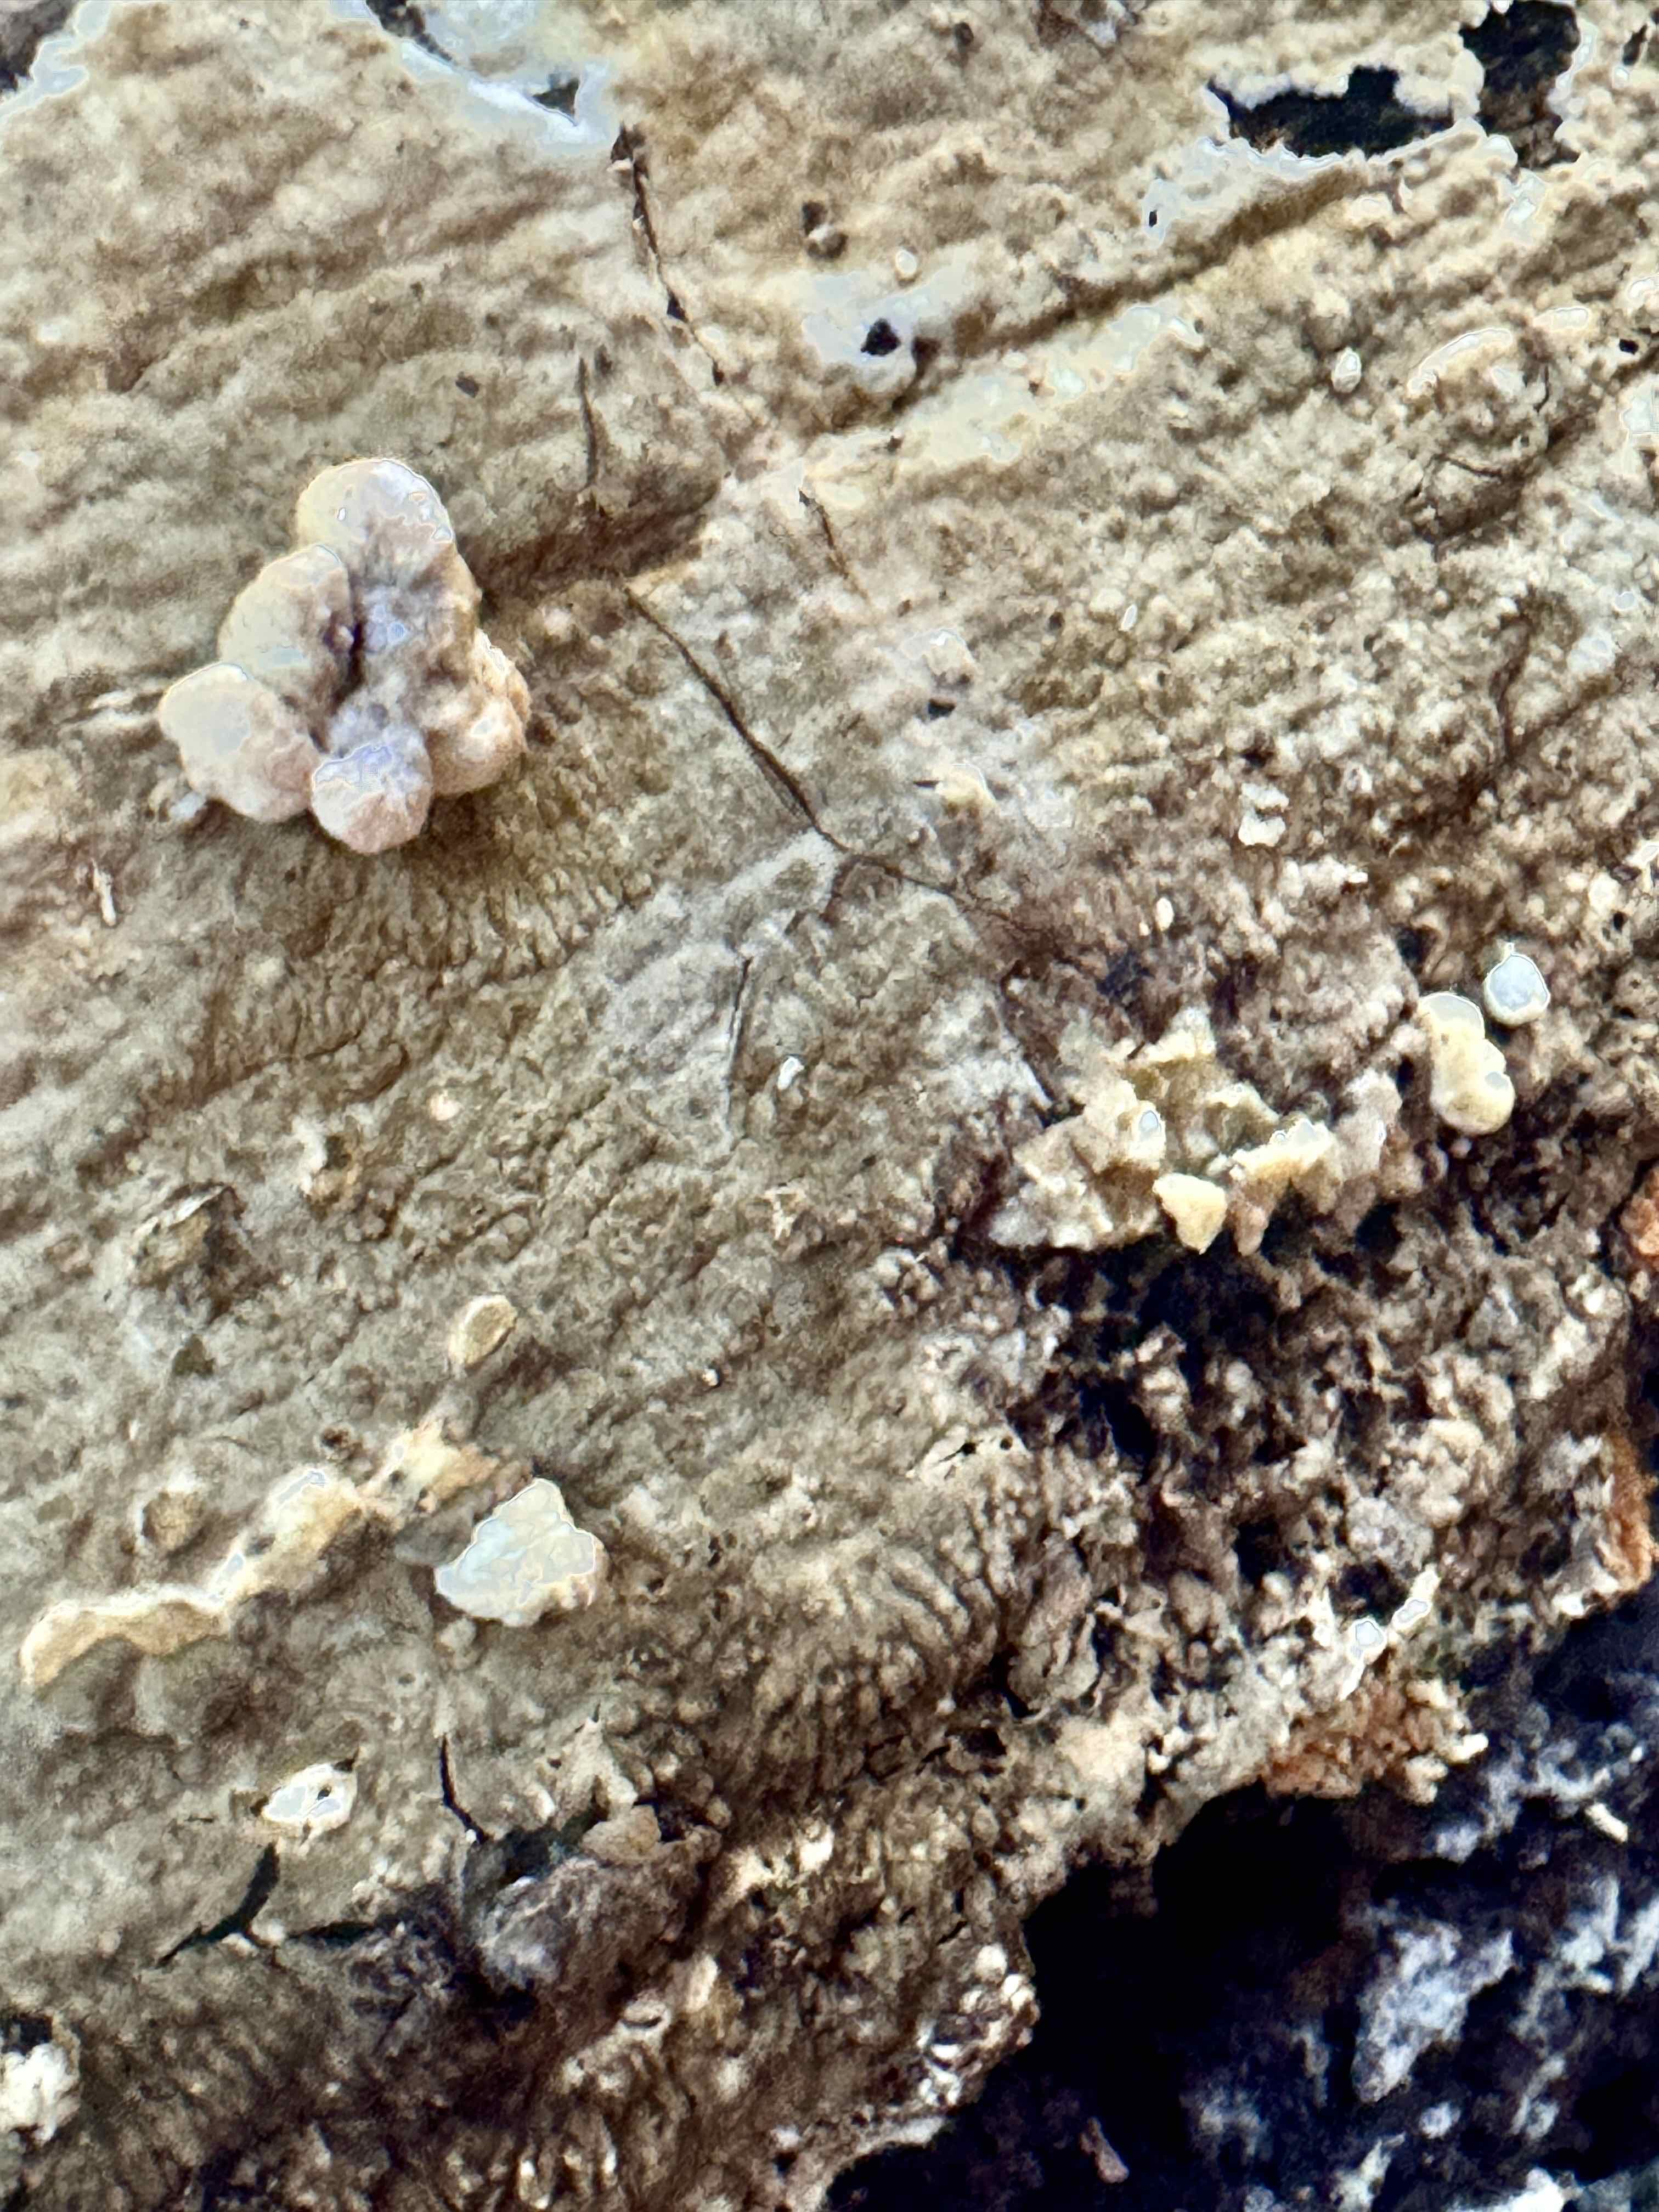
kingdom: Fungi
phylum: Basidiomycota
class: Agaricomycetes
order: Boletales
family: Coniophoraceae
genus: Coniophora
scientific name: Coniophora puteana
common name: gul tømmersvamp
